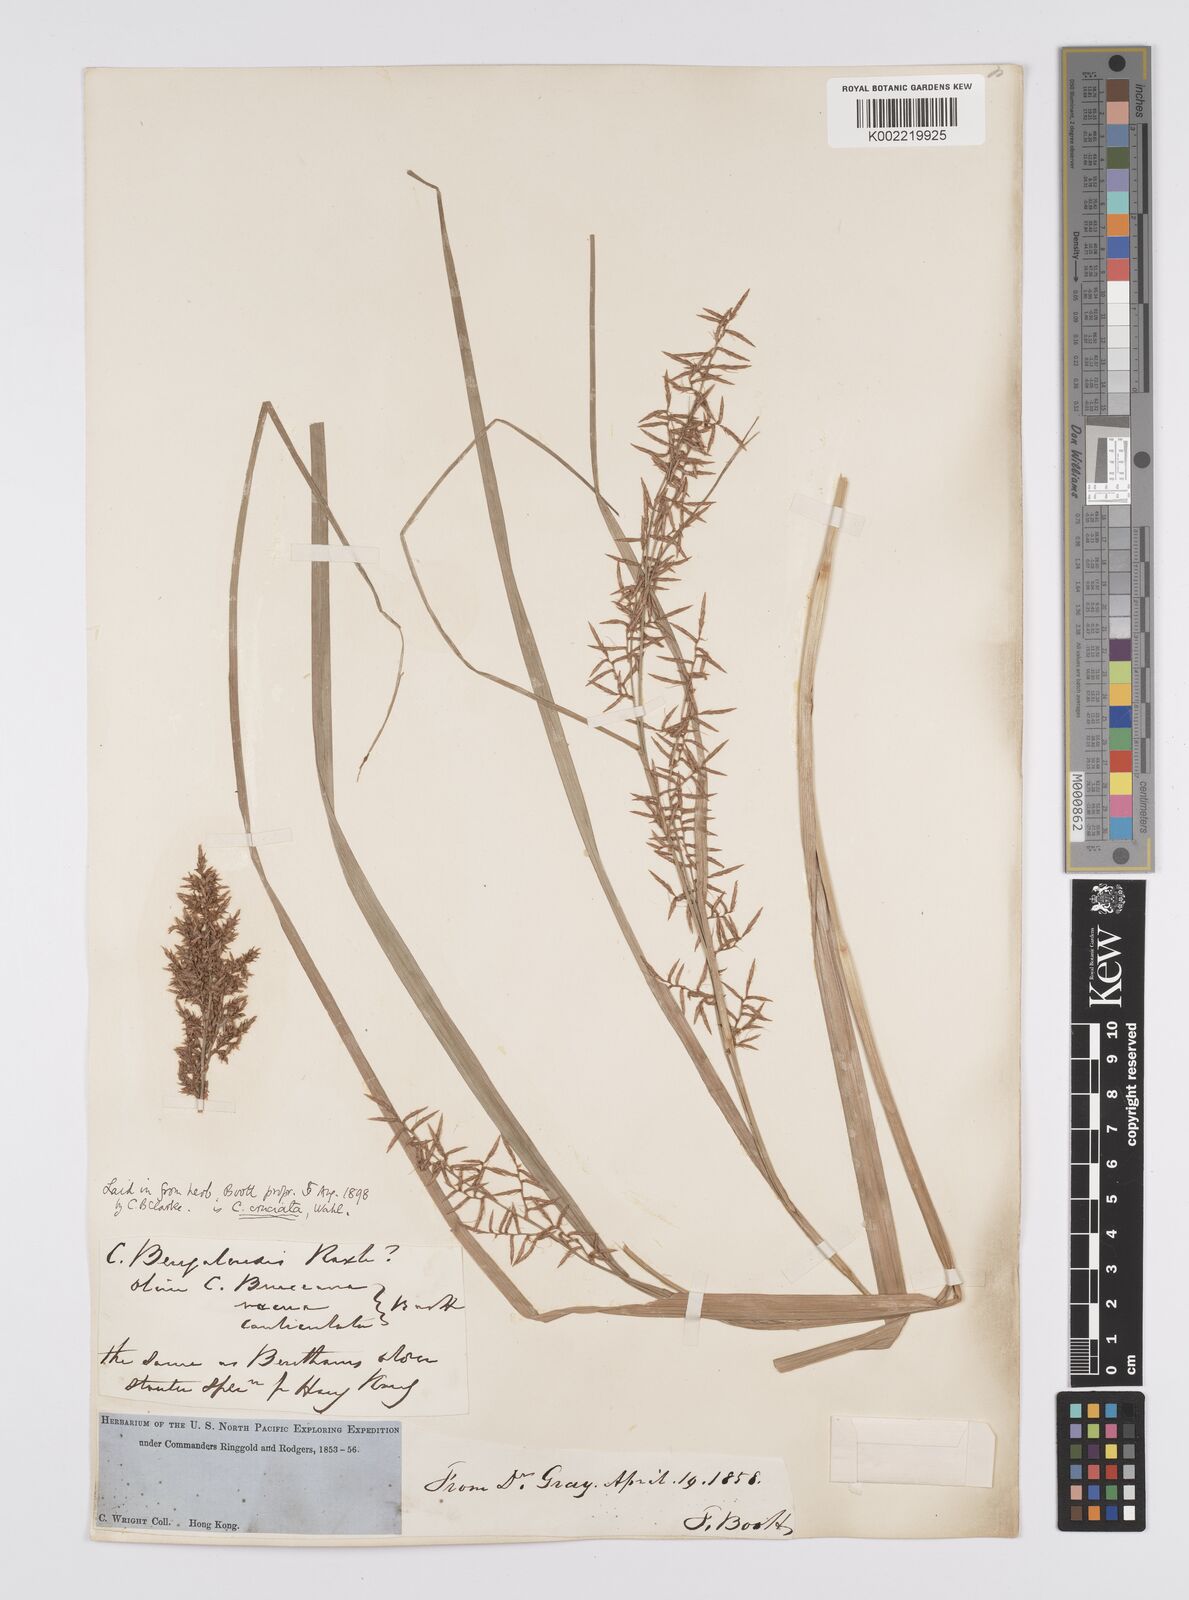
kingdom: Plantae
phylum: Tracheophyta
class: Liliopsida
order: Poales
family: Cyperaceae
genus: Carex
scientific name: Carex cruciata
